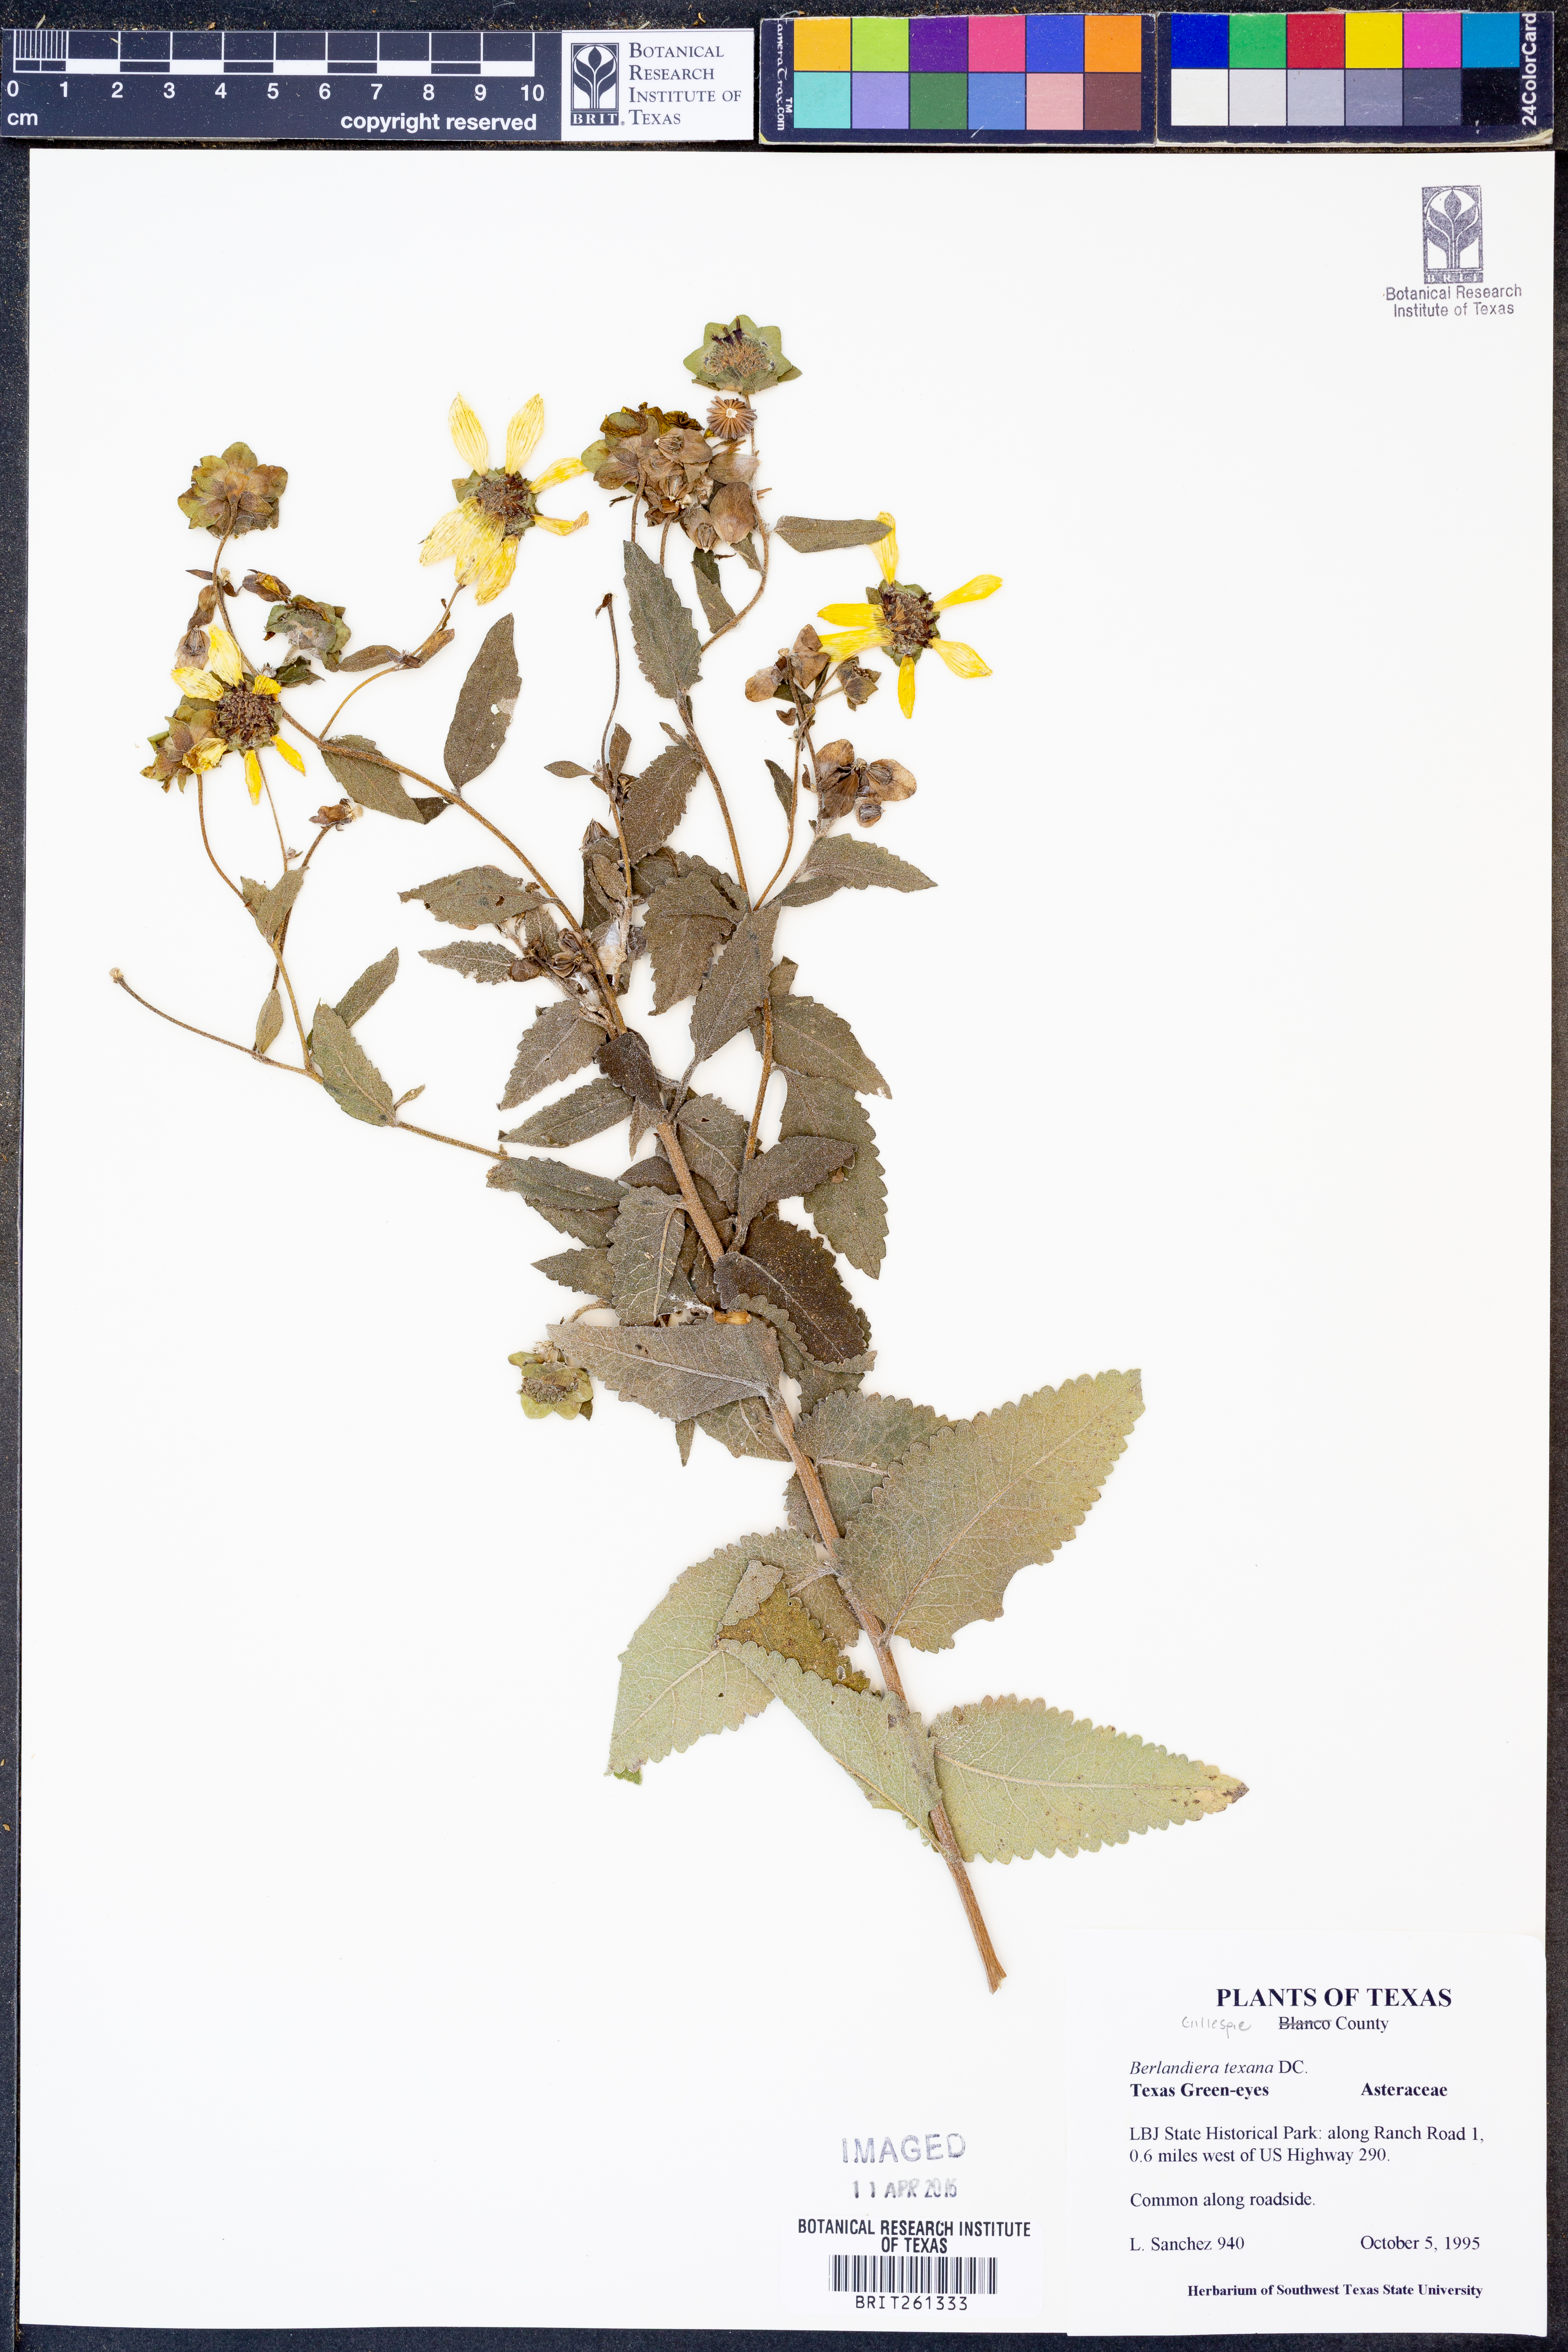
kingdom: Plantae
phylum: Tracheophyta
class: Magnoliopsida
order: Asterales
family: Asteraceae
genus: Berlandiera
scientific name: Berlandiera texana
